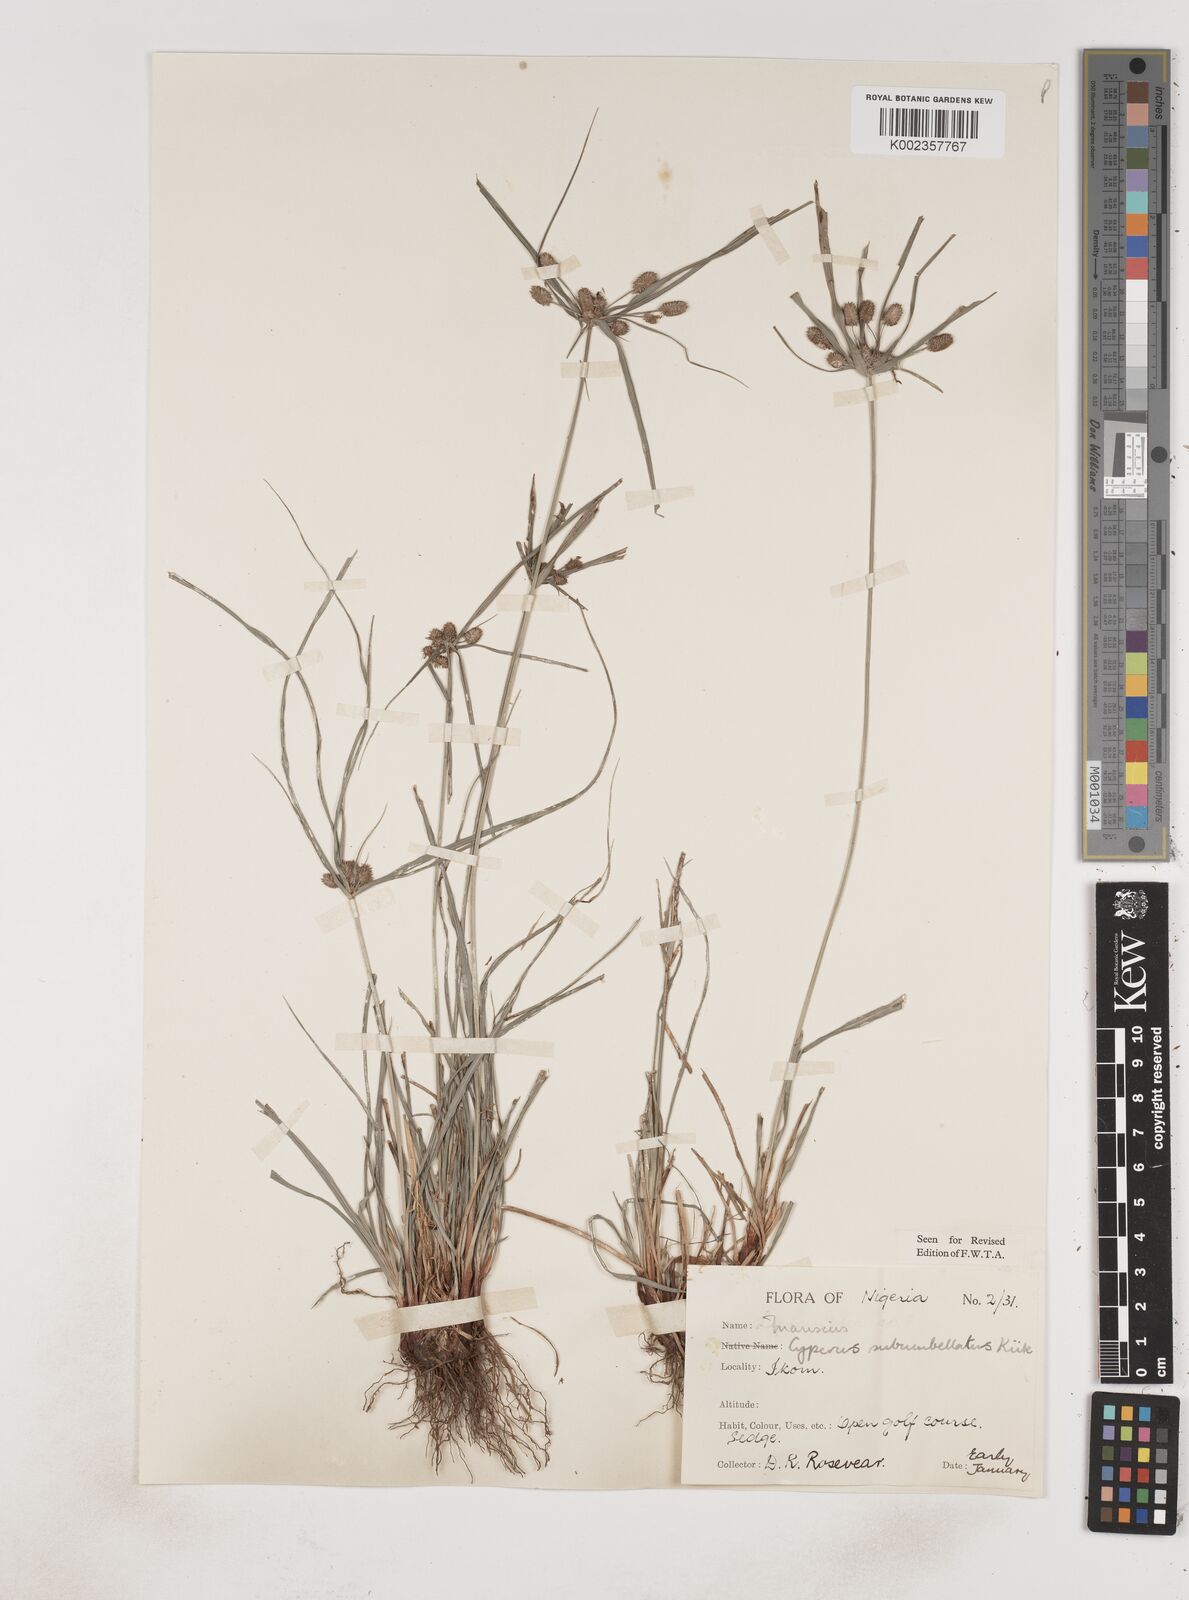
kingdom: Plantae
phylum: Tracheophyta
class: Liliopsida
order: Poales
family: Cyperaceae
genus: Cyperus
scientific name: Cyperus sublimis
